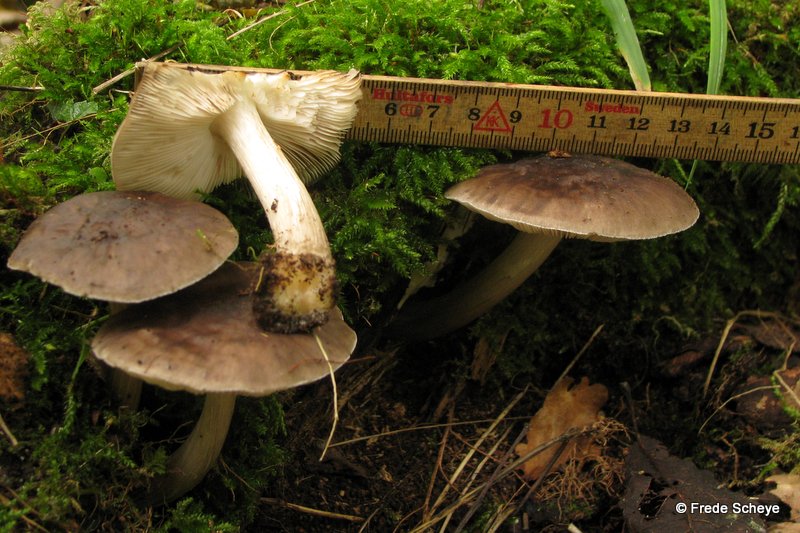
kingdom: Fungi
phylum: Basidiomycota
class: Agaricomycetes
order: Agaricales
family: Pluteaceae
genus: Pluteus
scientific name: Pluteus cervinus
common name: sodfarvet skærmhat
